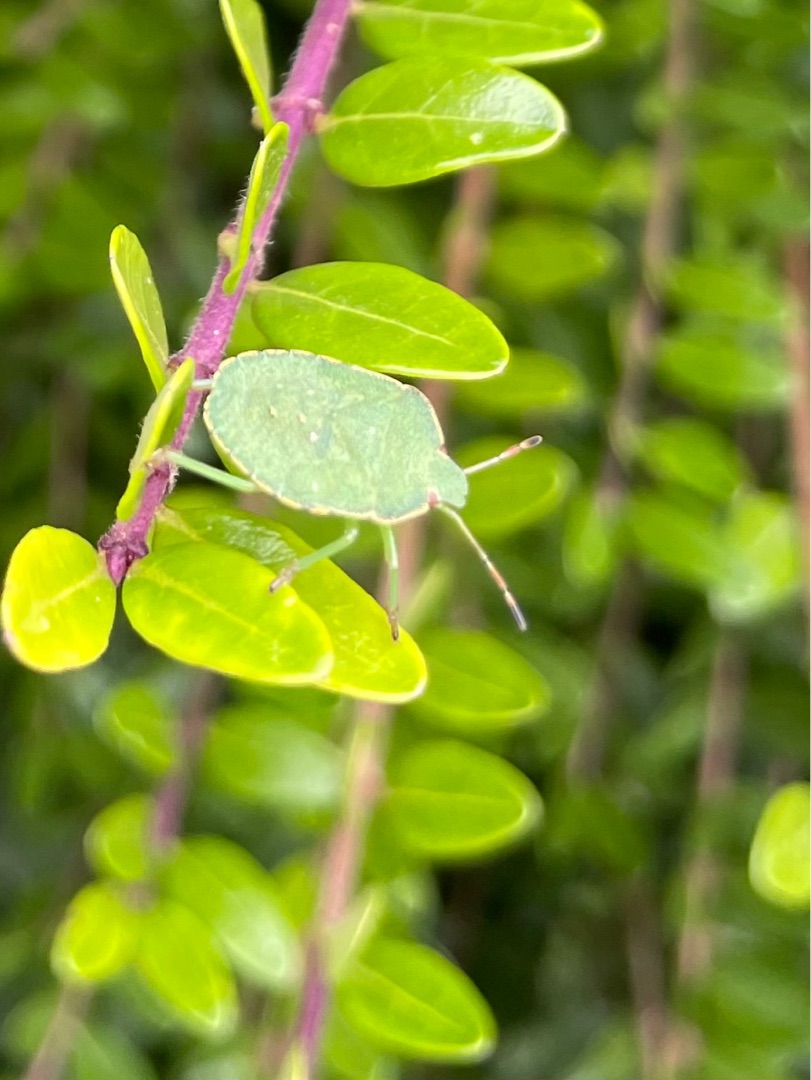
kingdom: Animalia
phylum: Arthropoda
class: Insecta
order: Hemiptera
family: Pentatomidae
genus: Palomena
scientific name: Palomena prasina
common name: Grøn bredtæge
